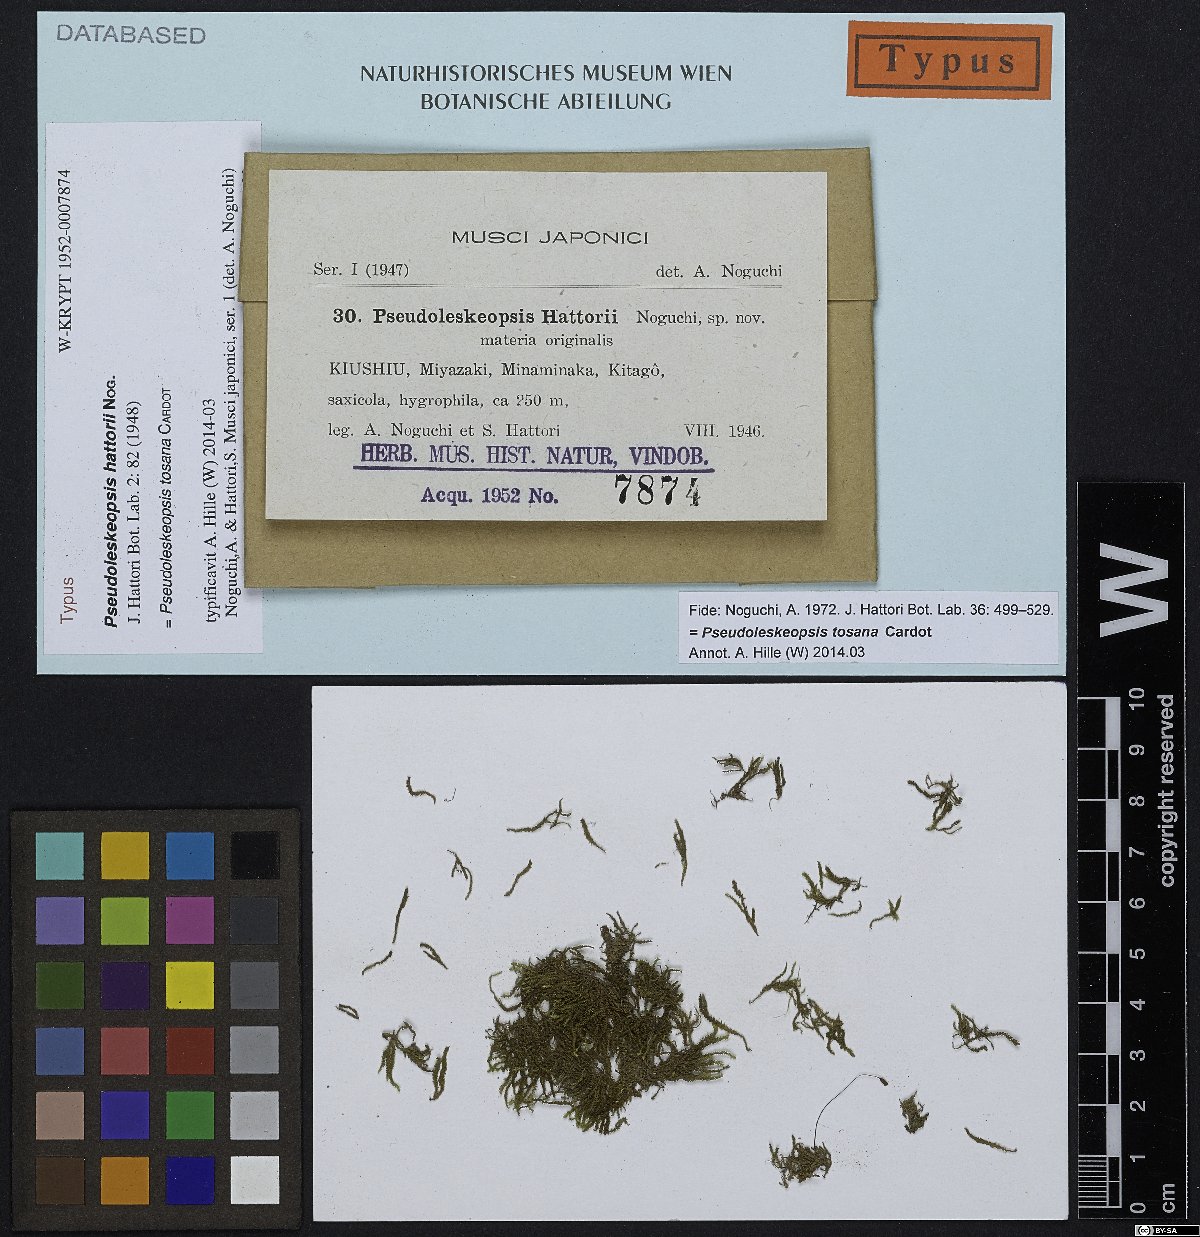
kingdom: Plantae
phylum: Bryophyta
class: Bryopsida
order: Hypnales
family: Leskeaceae
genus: Pseudoleskeopsis
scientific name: Pseudoleskeopsis tosana
